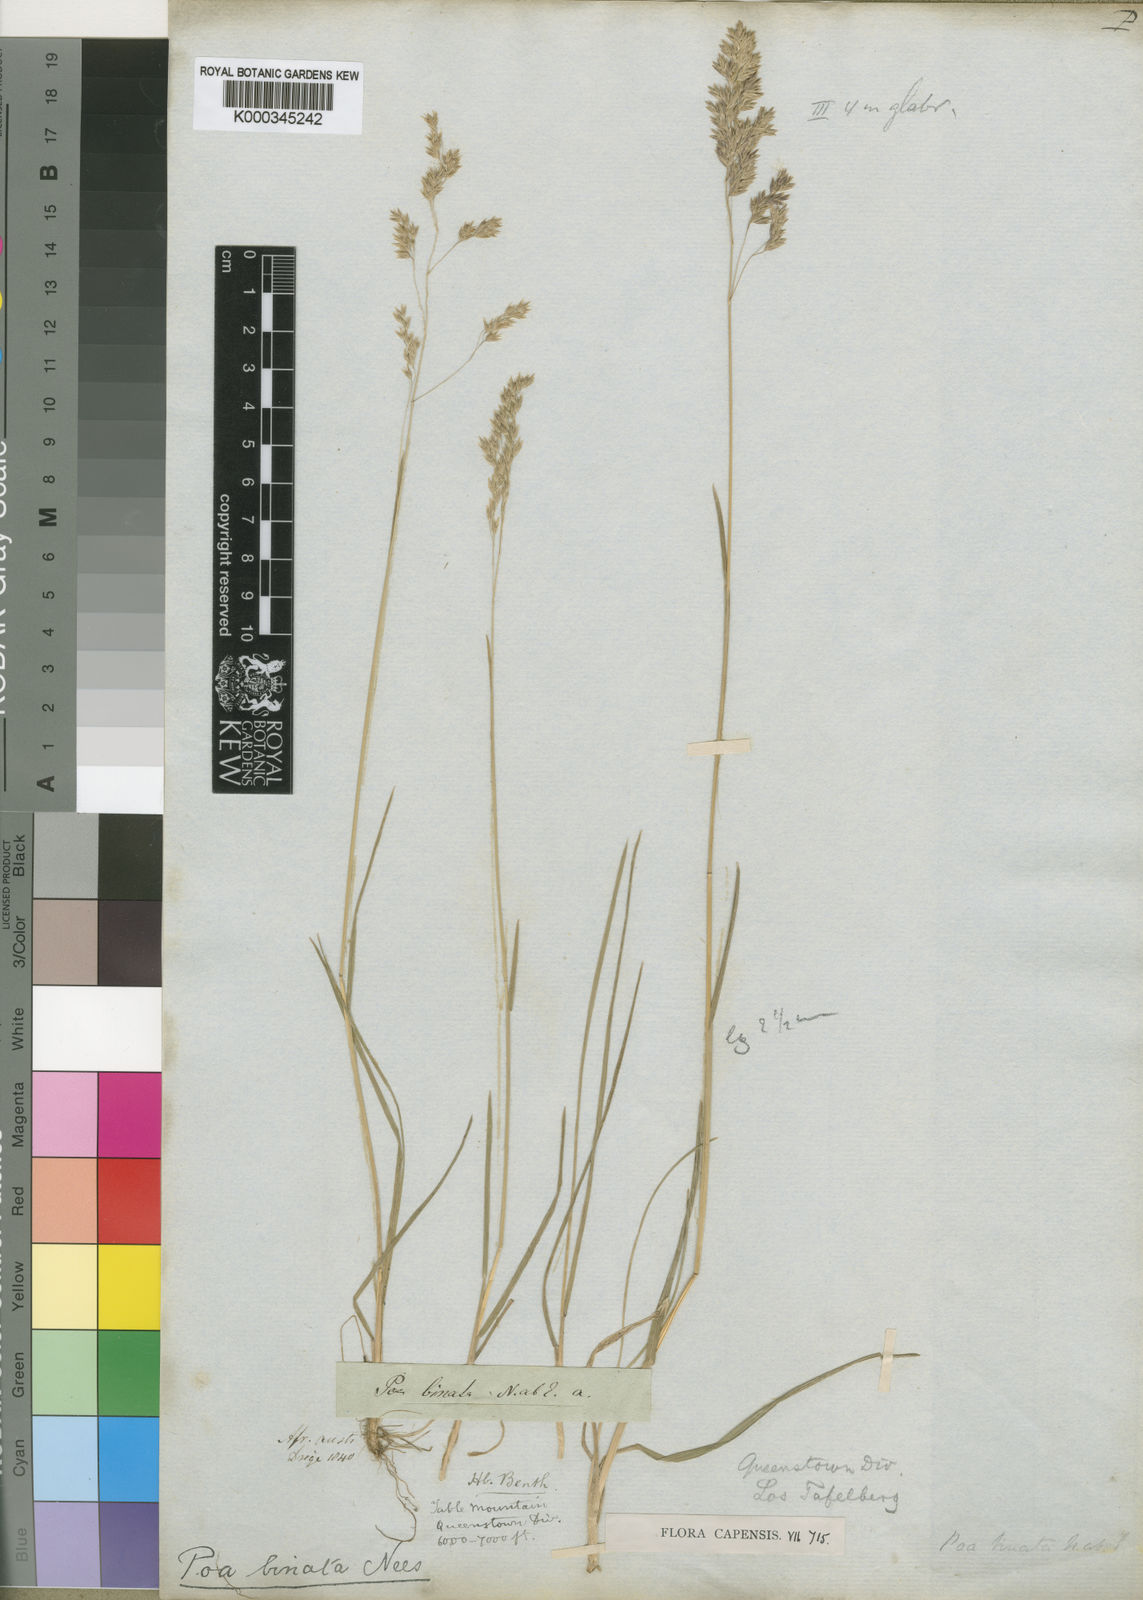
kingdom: Plantae
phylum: Tracheophyta
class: Liliopsida
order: Poales
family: Poaceae
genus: Poa
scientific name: Poa binata
